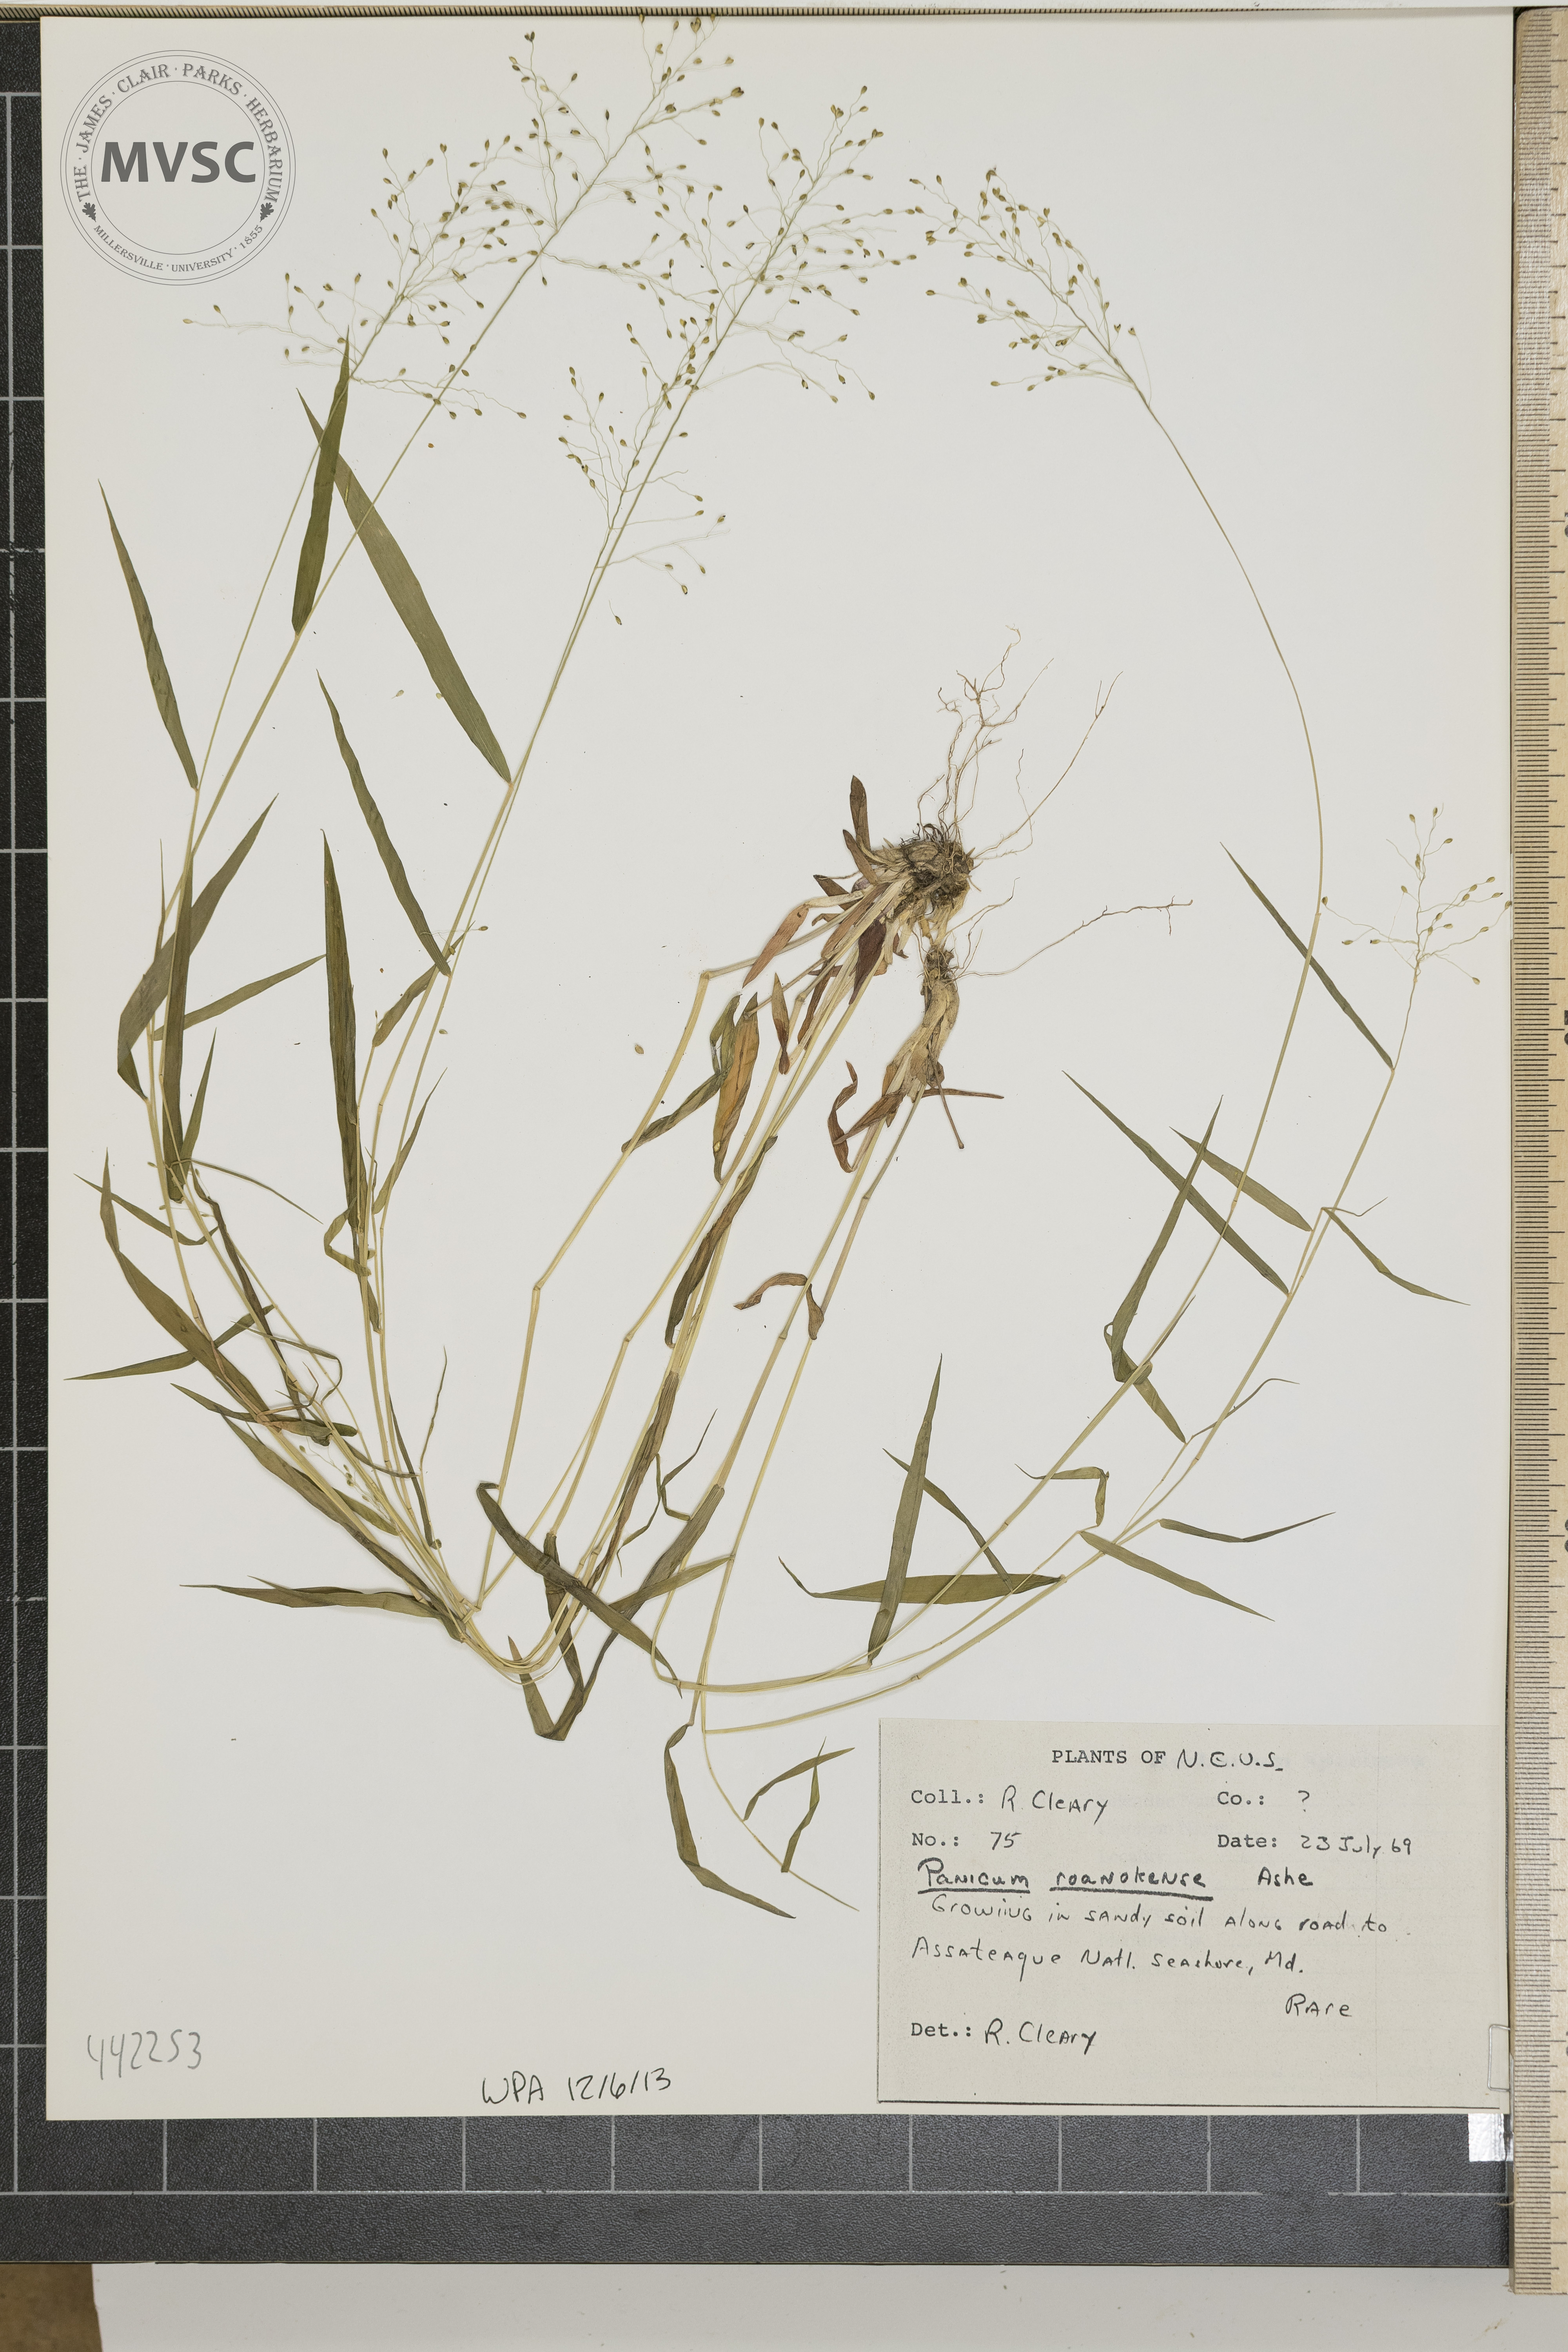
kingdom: Plantae
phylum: Tracheophyta
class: Liliopsida
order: Poales
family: Poaceae
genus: Dichanthelium
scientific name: Dichanthelium roanokense
